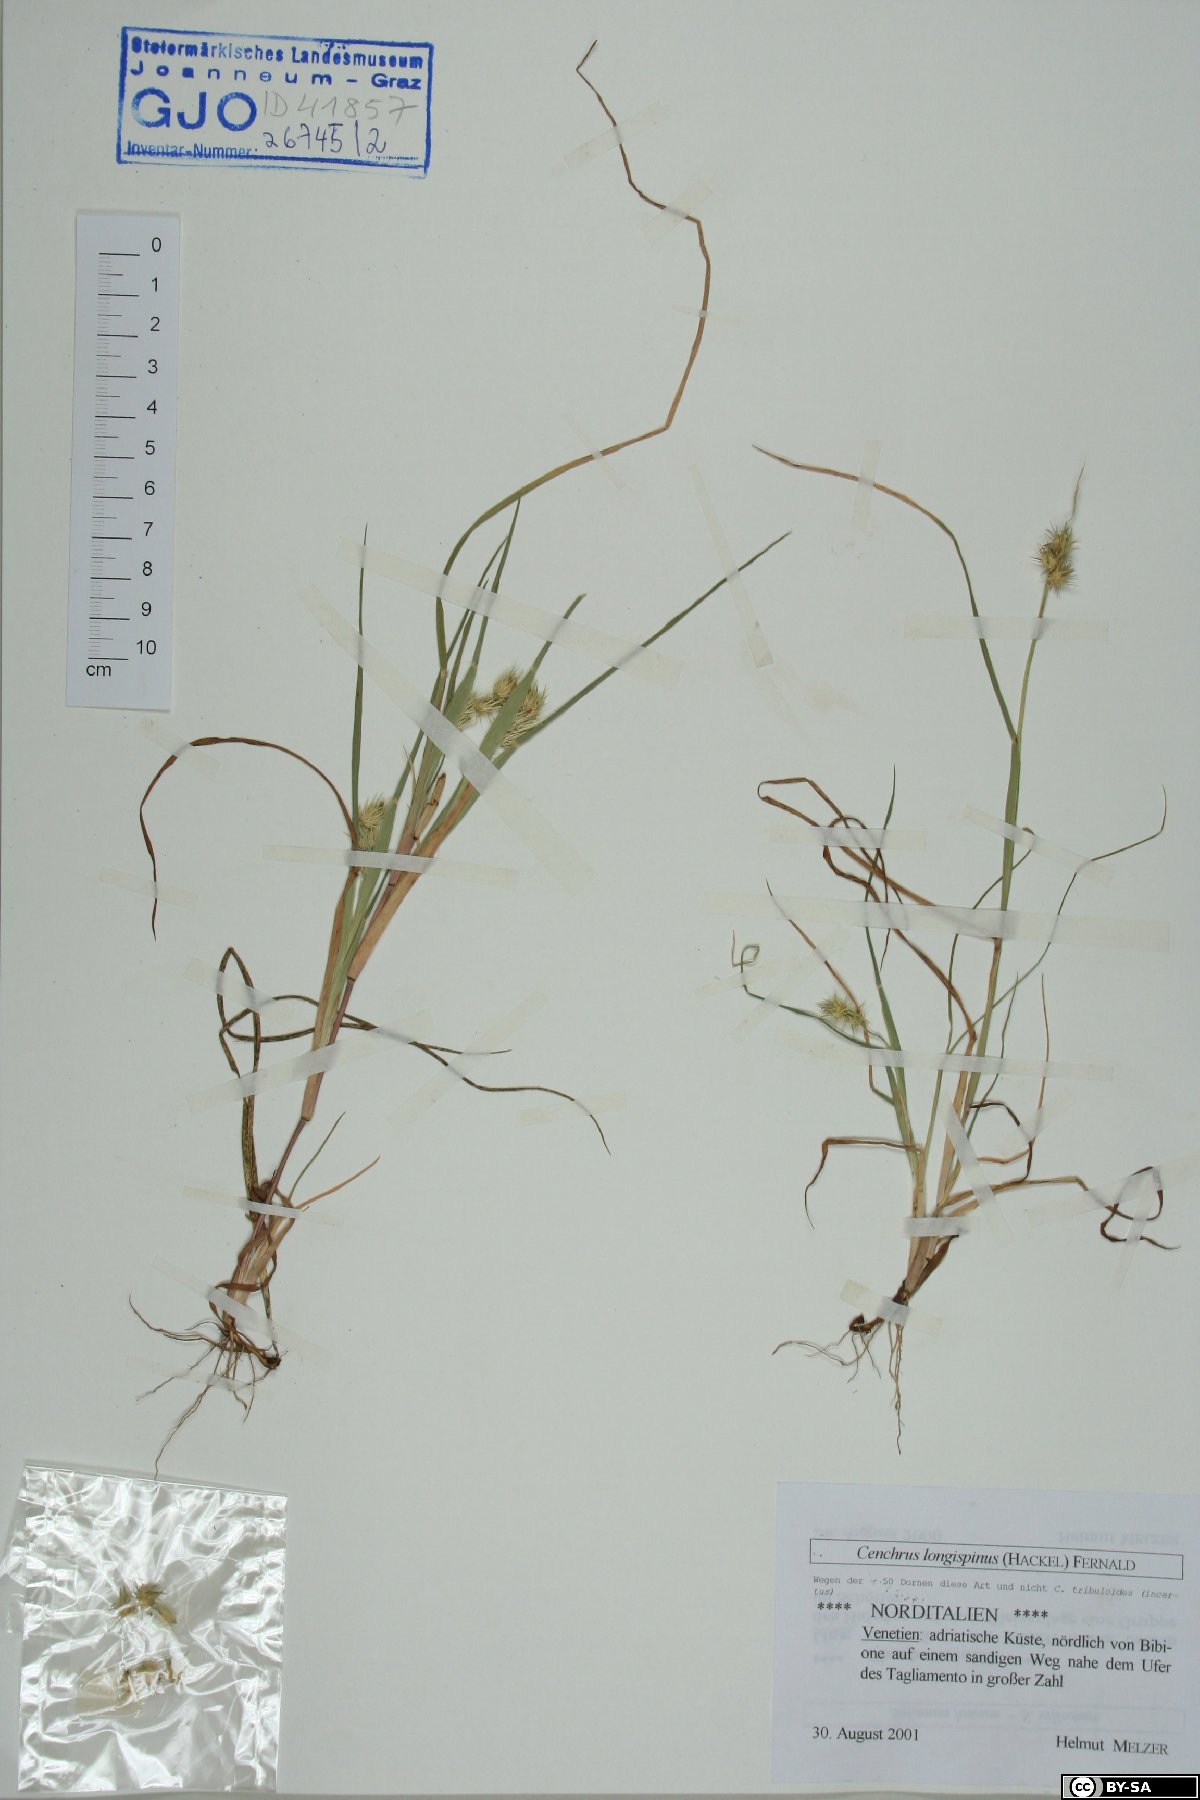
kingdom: Plantae
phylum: Tracheophyta
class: Liliopsida
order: Poales
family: Poaceae
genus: Cenchrus
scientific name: Cenchrus longispinus
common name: Mat sandbur
